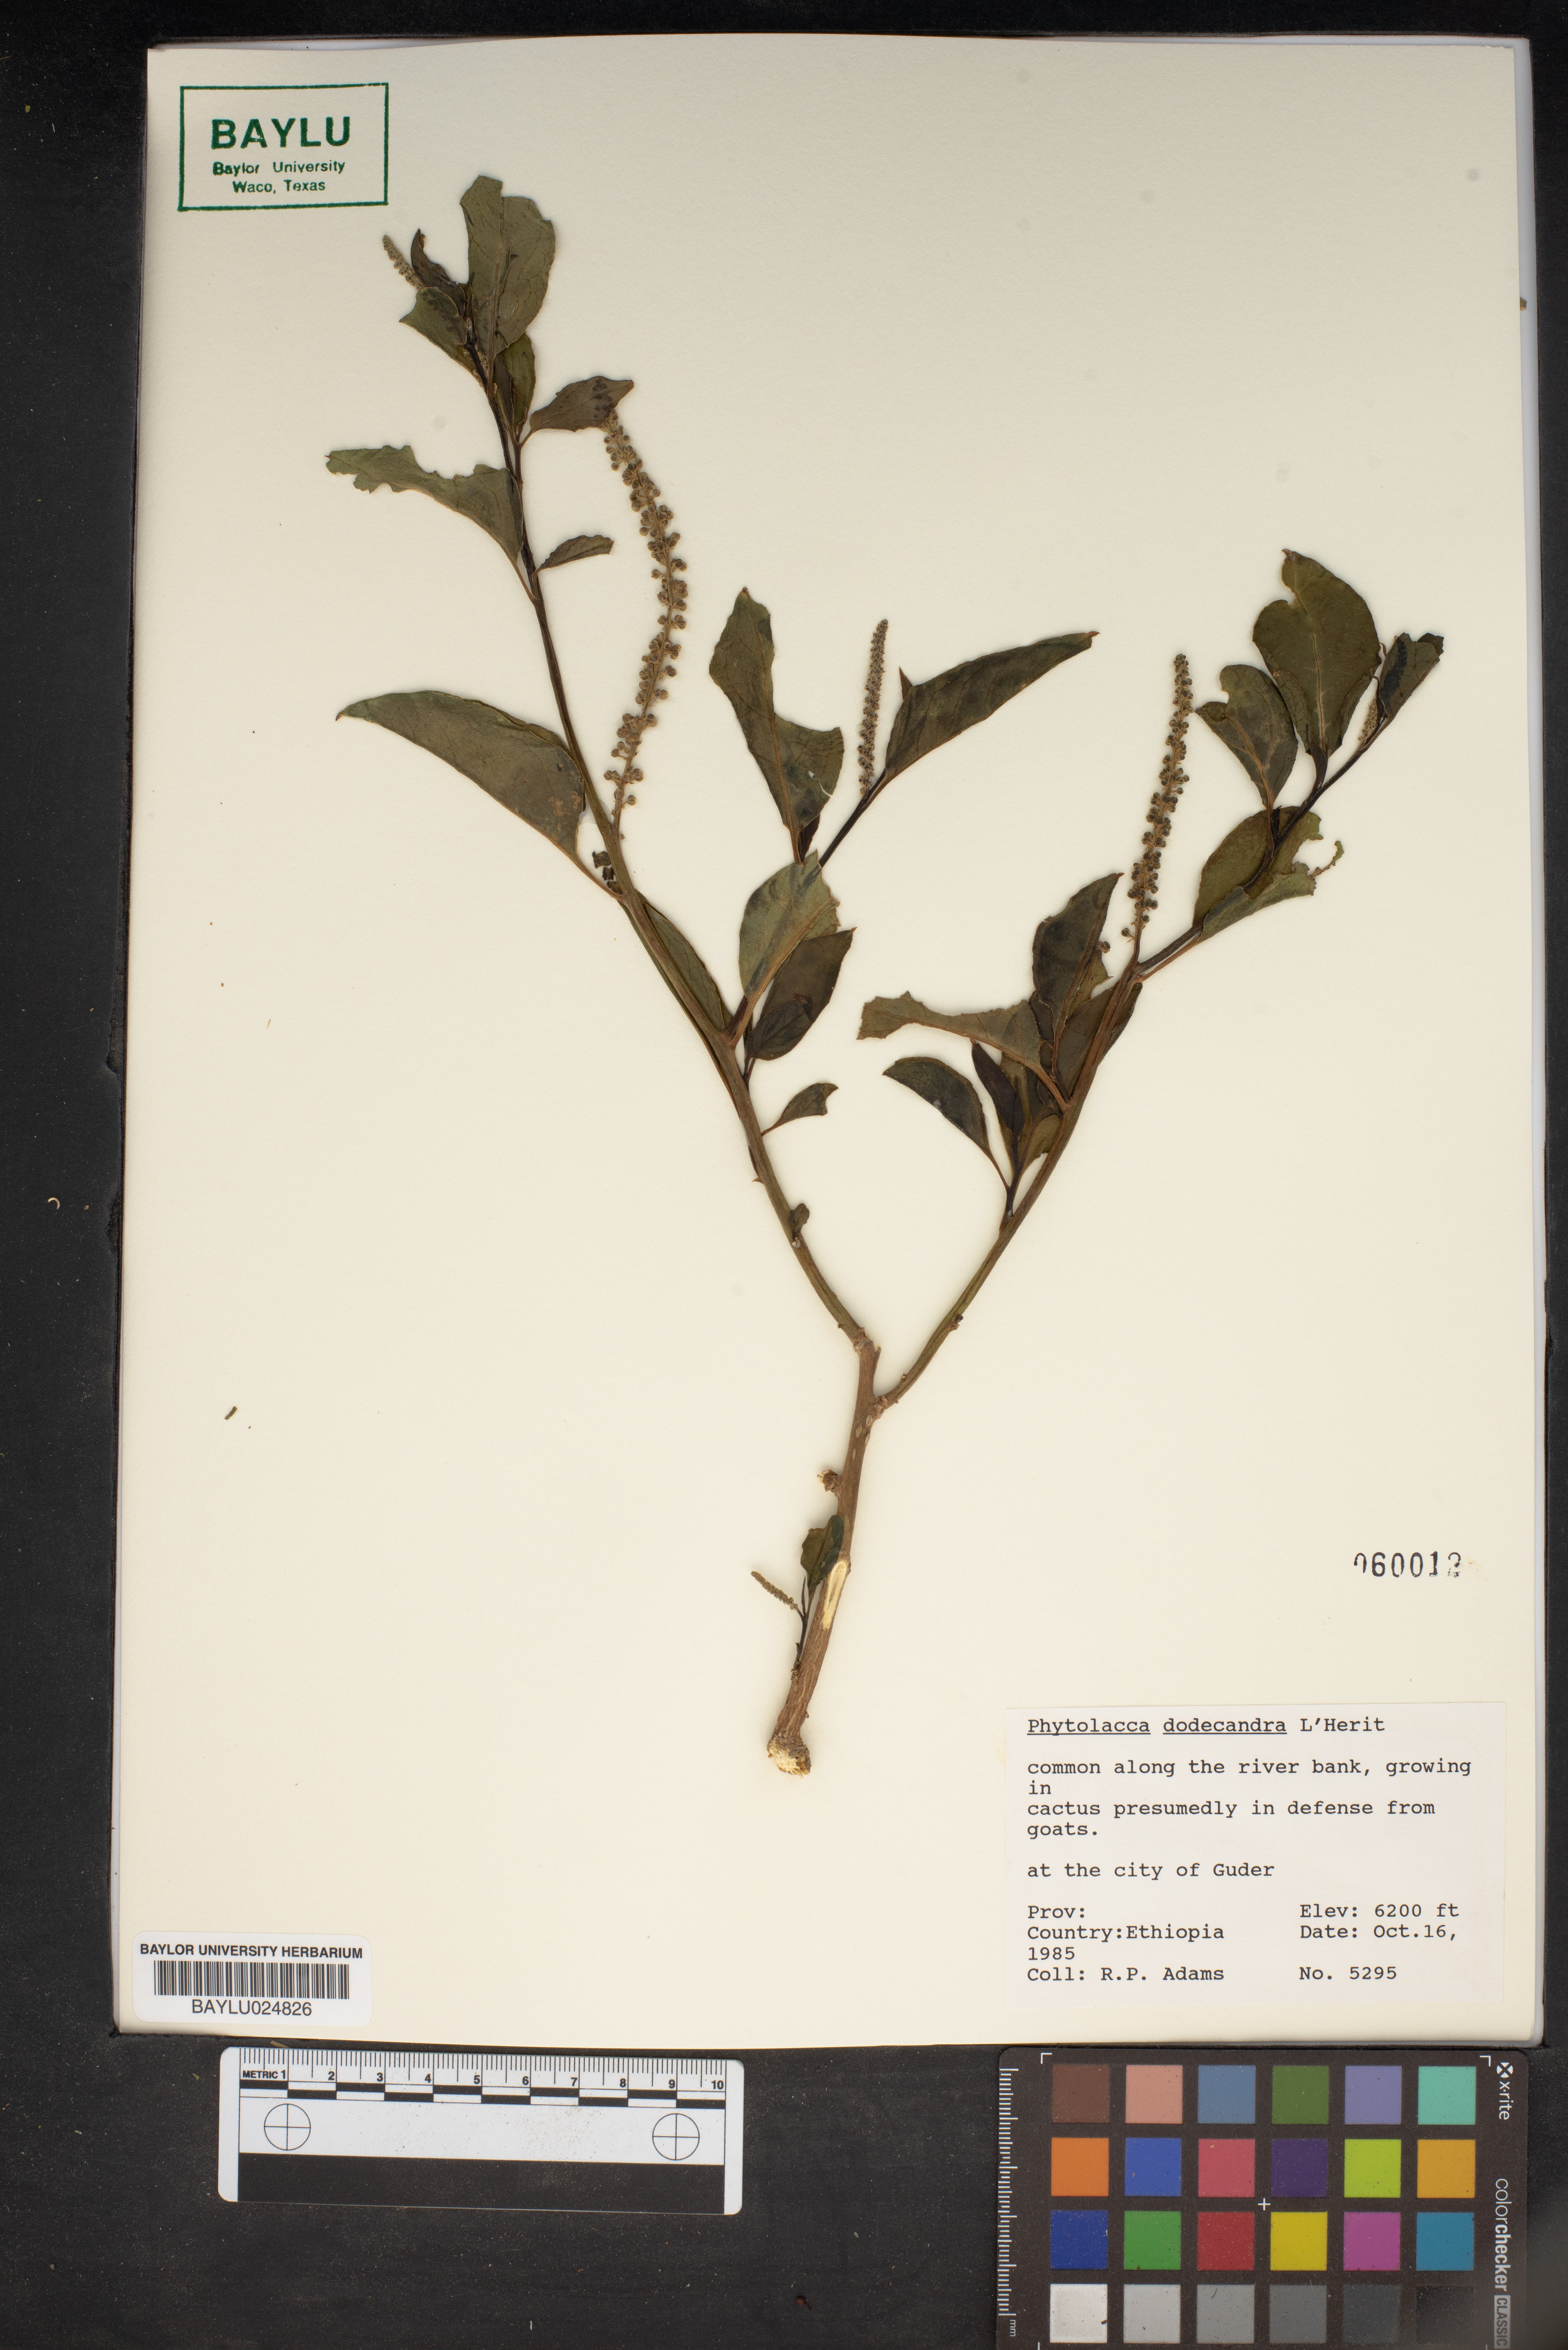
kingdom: Plantae
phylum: Tracheophyta
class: Magnoliopsida
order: Caryophyllales
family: Phytolaccaceae
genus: Phytolacca
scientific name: Phytolacca dodecandra
